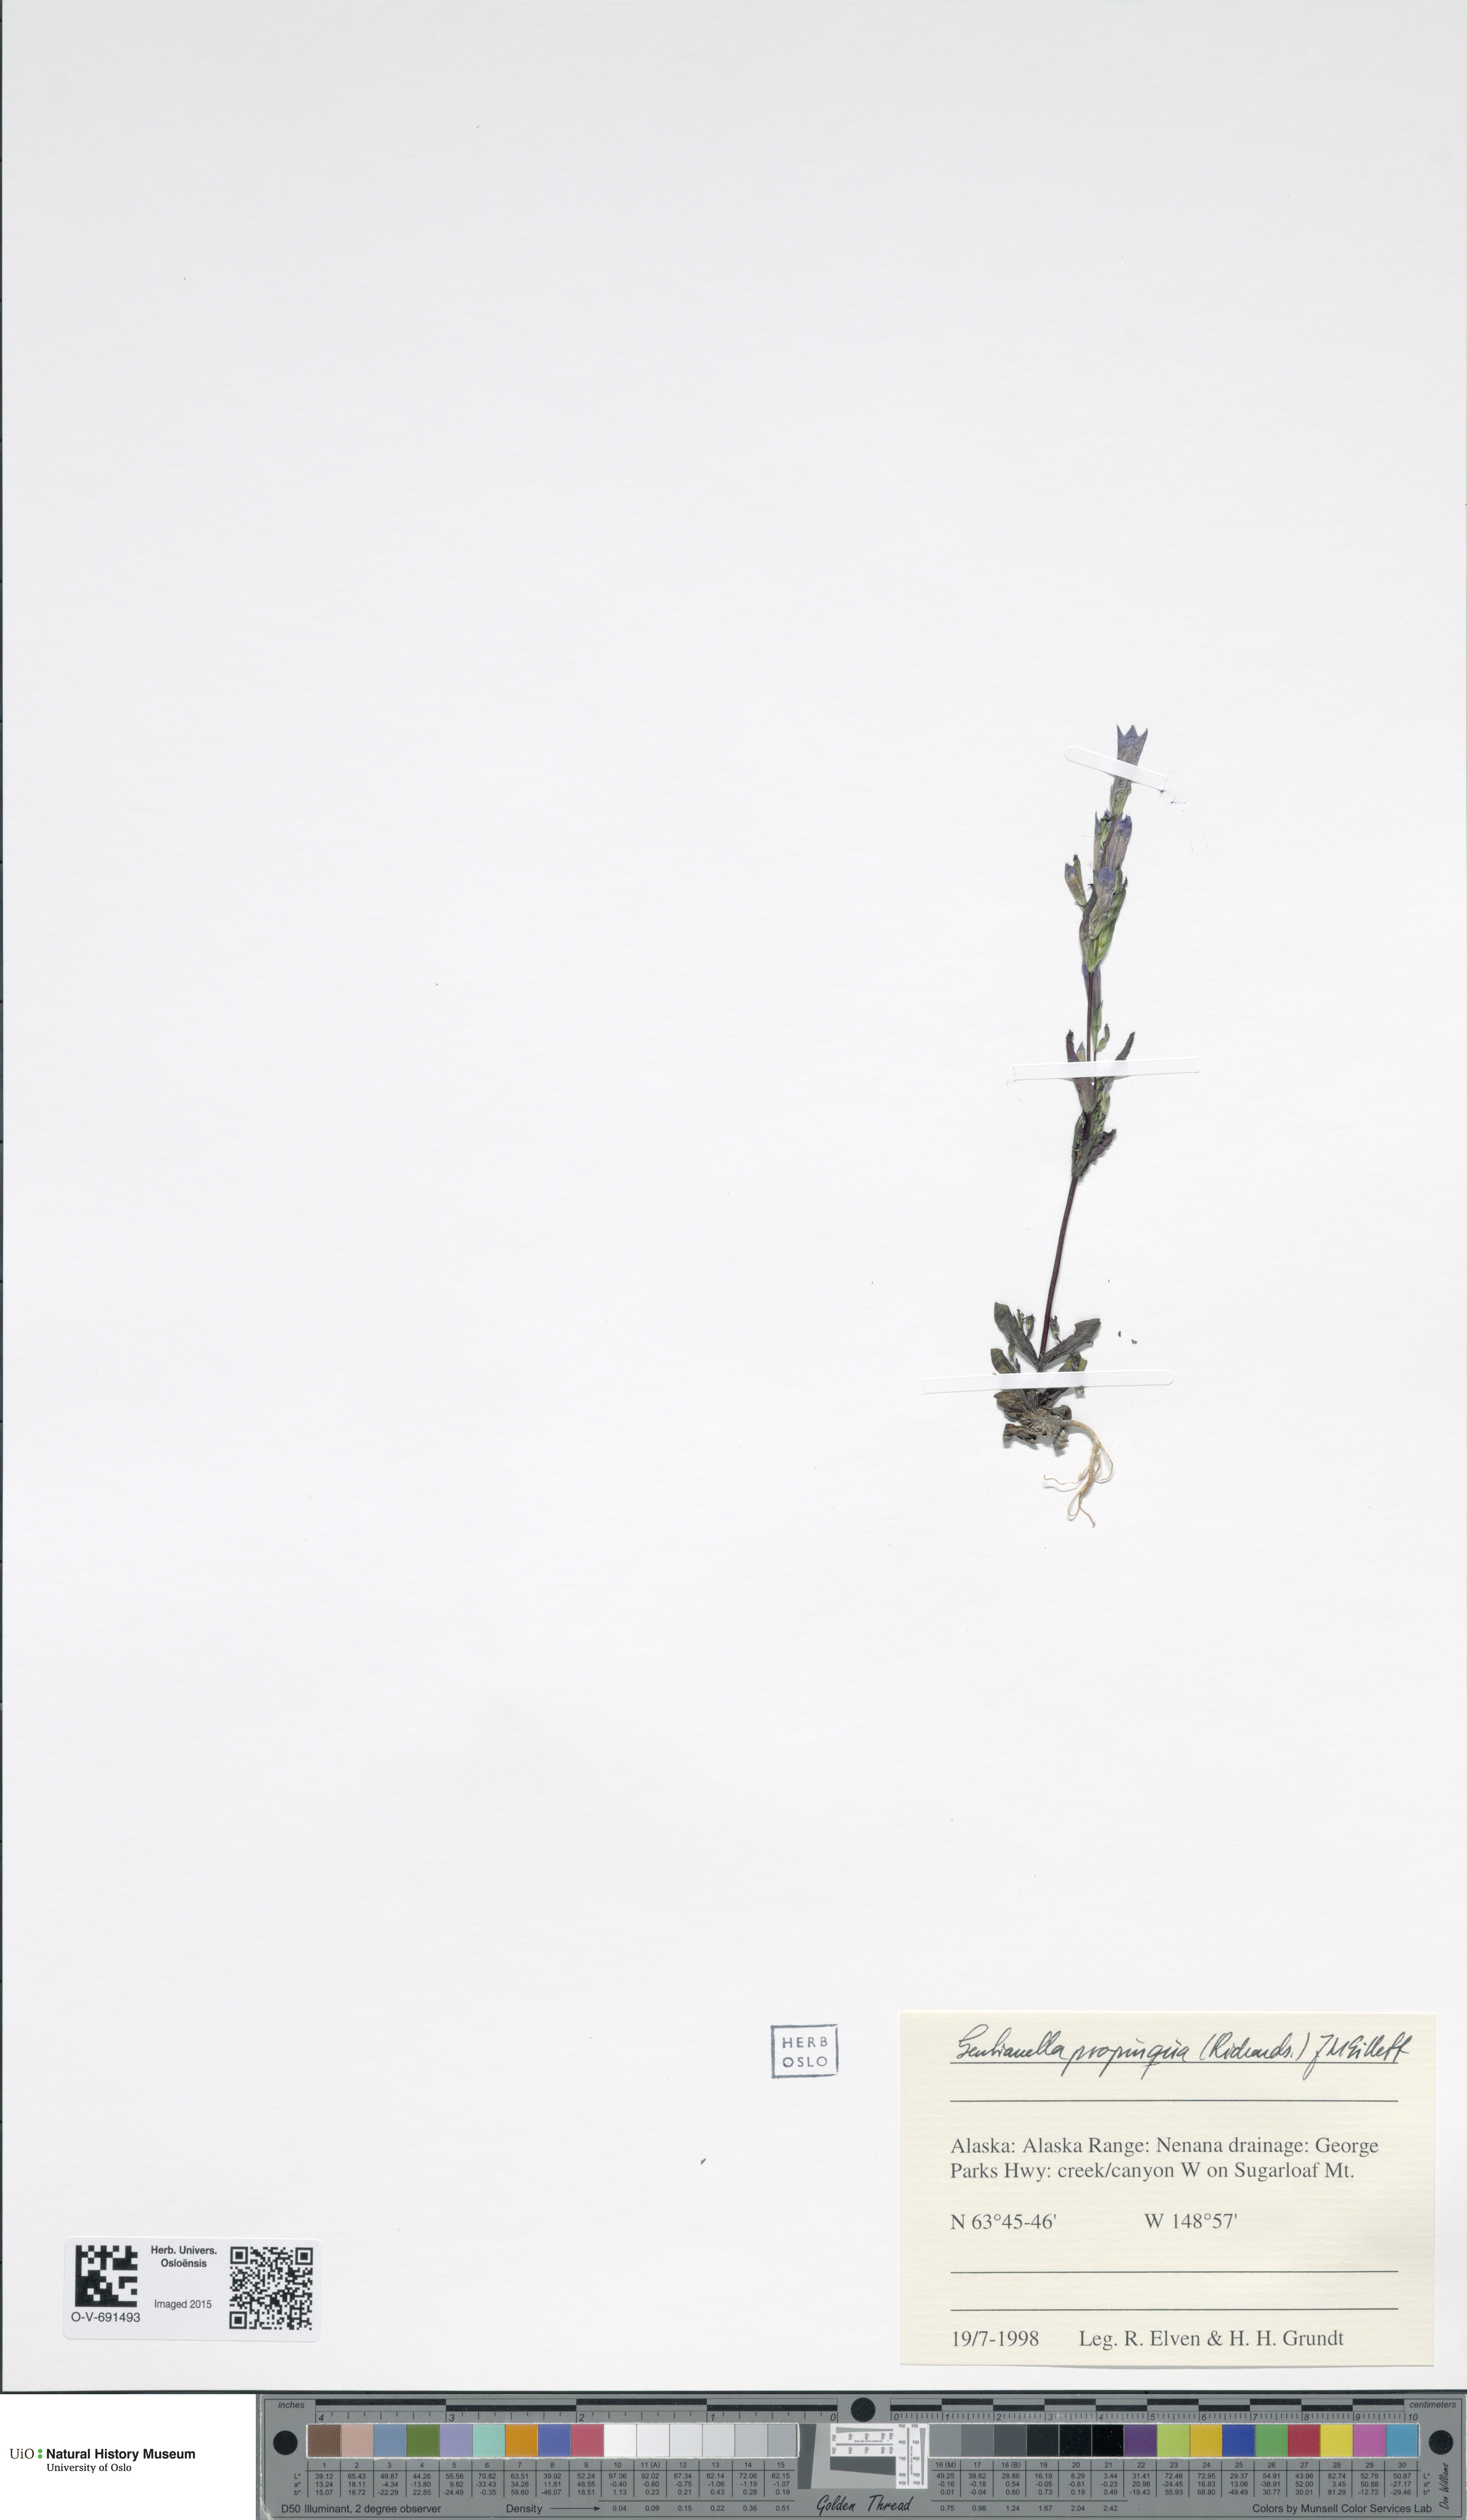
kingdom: Plantae
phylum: Tracheophyta
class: Magnoliopsida
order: Gentianales
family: Gentianaceae
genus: Gentianella
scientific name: Gentianella propinqua
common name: Four-parted dwarf-gentian
